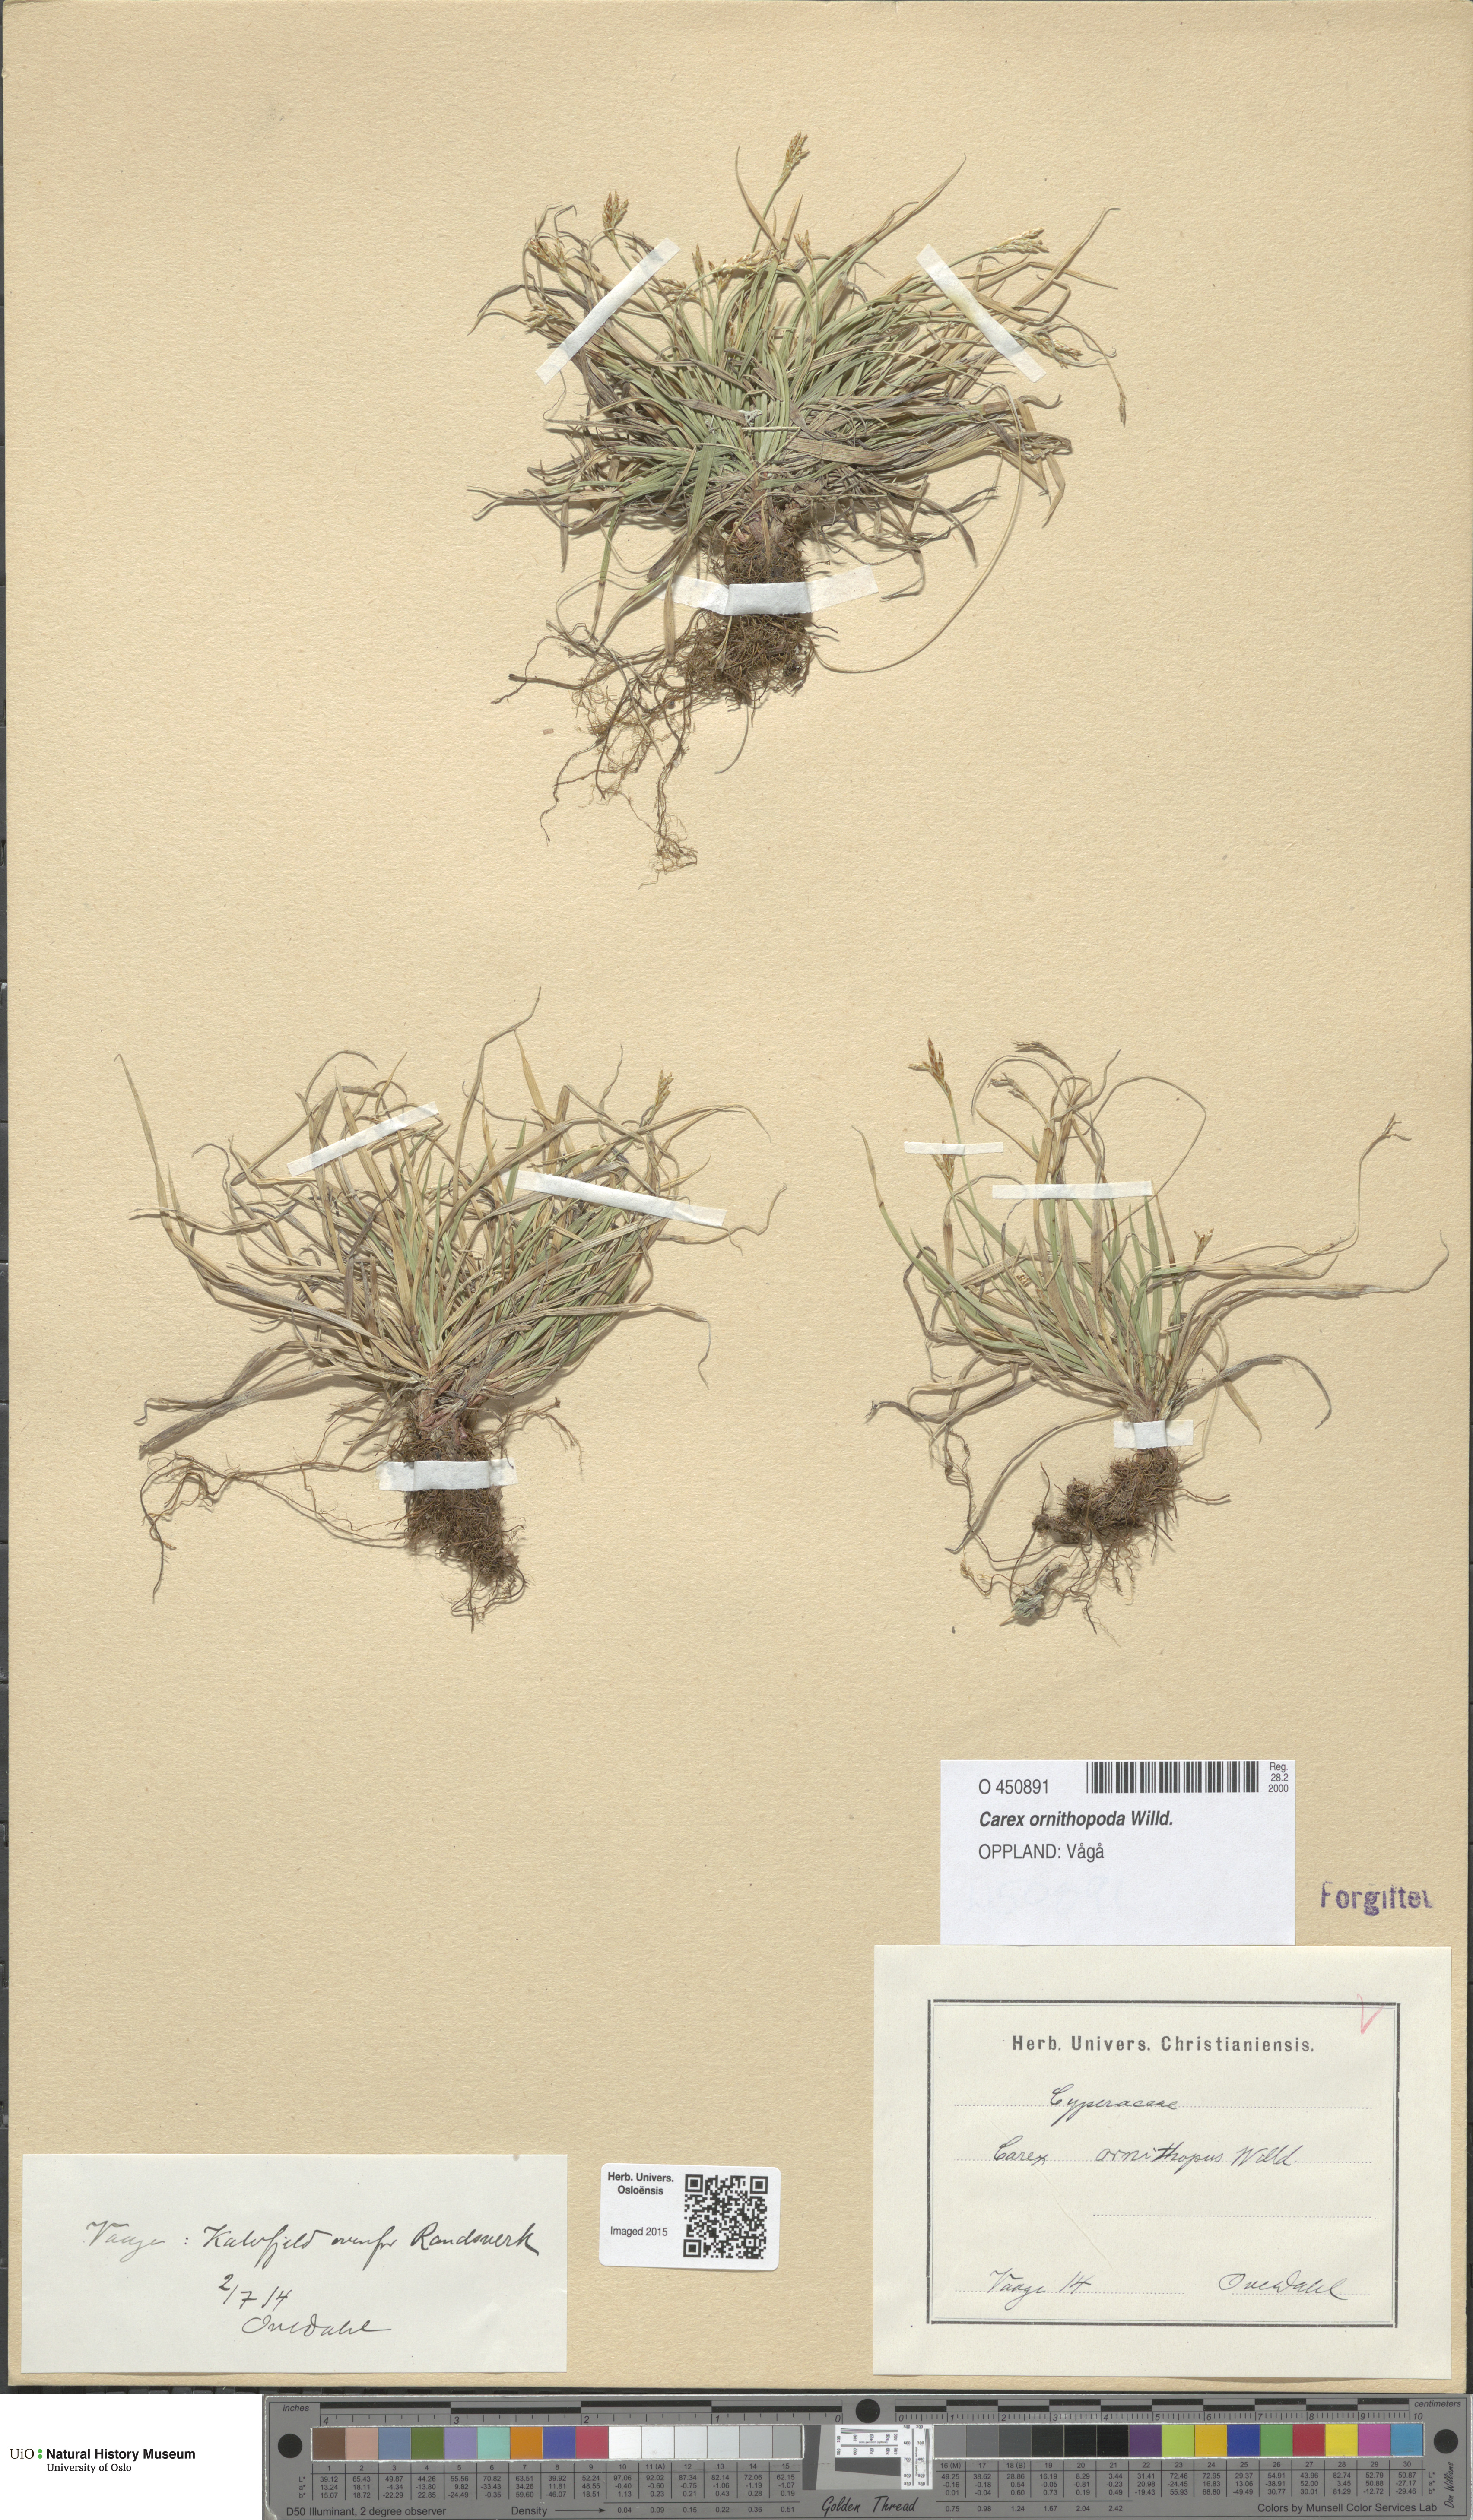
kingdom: Plantae
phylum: Tracheophyta
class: Liliopsida
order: Poales
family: Cyperaceae
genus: Carex
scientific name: Carex ornithopoda
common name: Bird's-foot sedge
